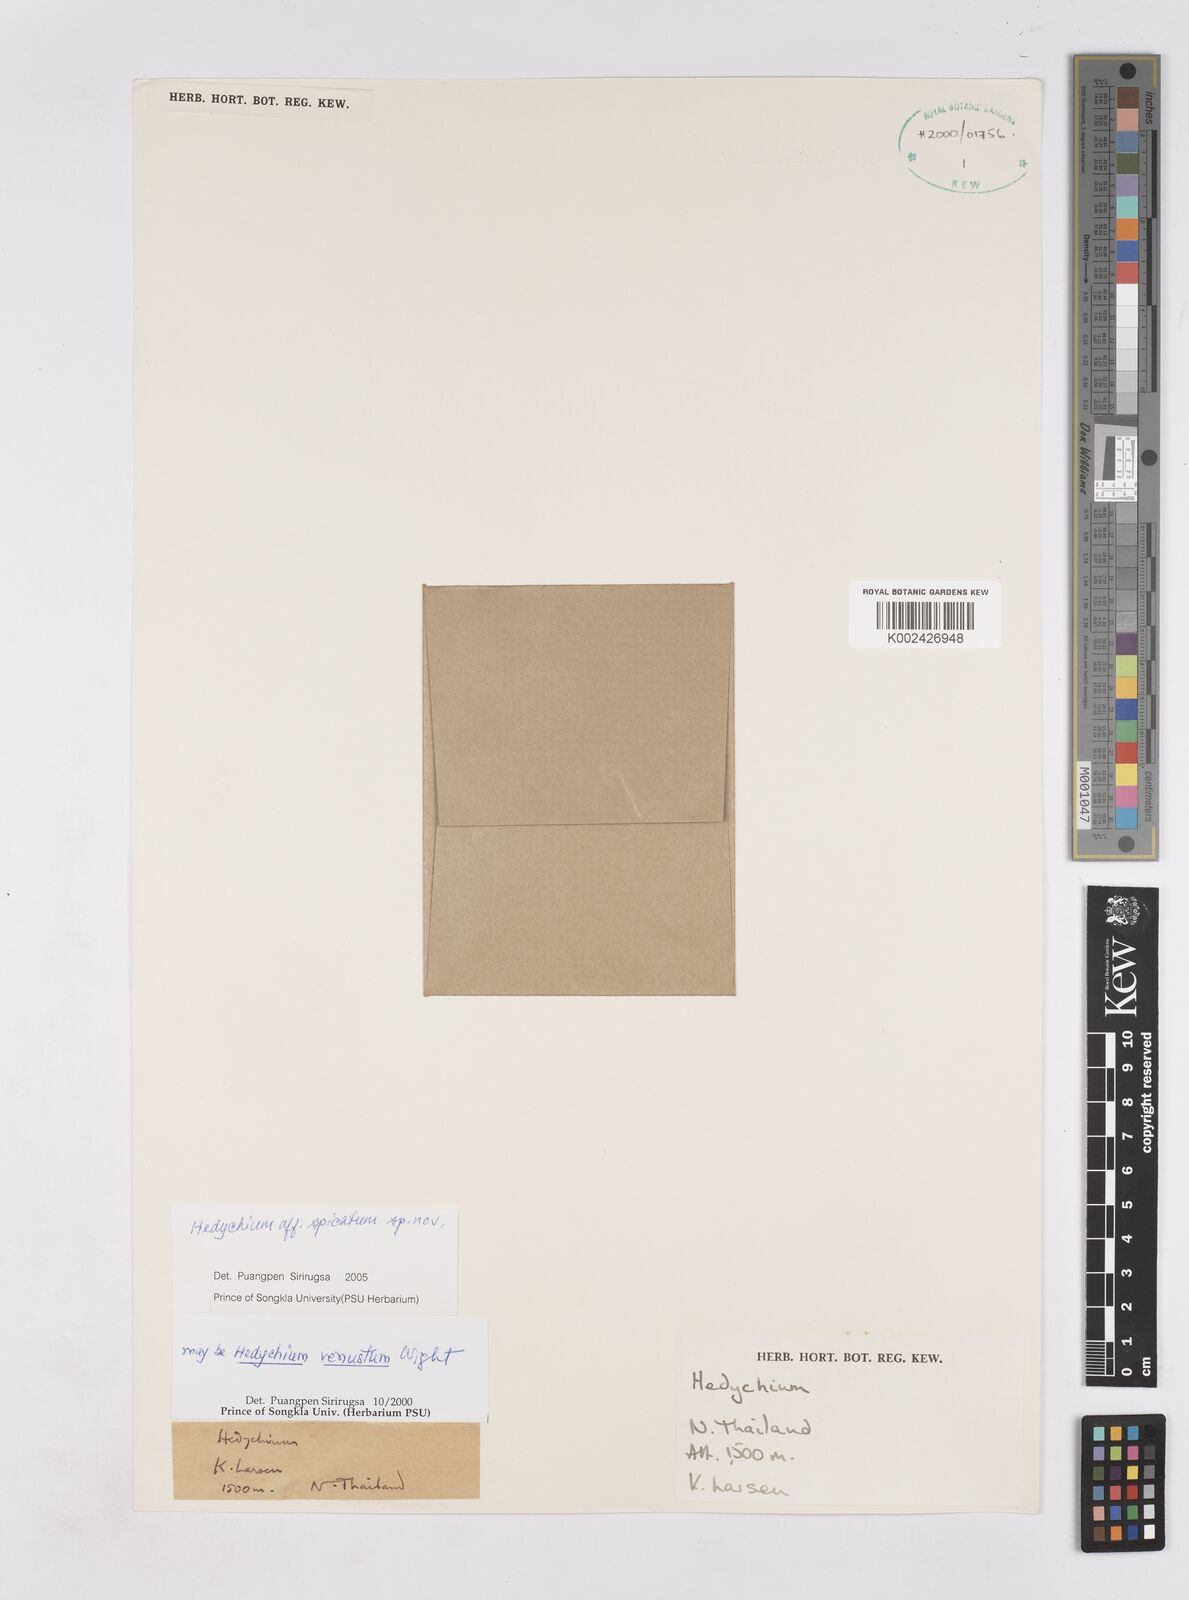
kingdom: Plantae
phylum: Tracheophyta
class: Liliopsida
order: Zingiberales
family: Zingiberaceae
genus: Hedychium
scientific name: Hedychium venustum
